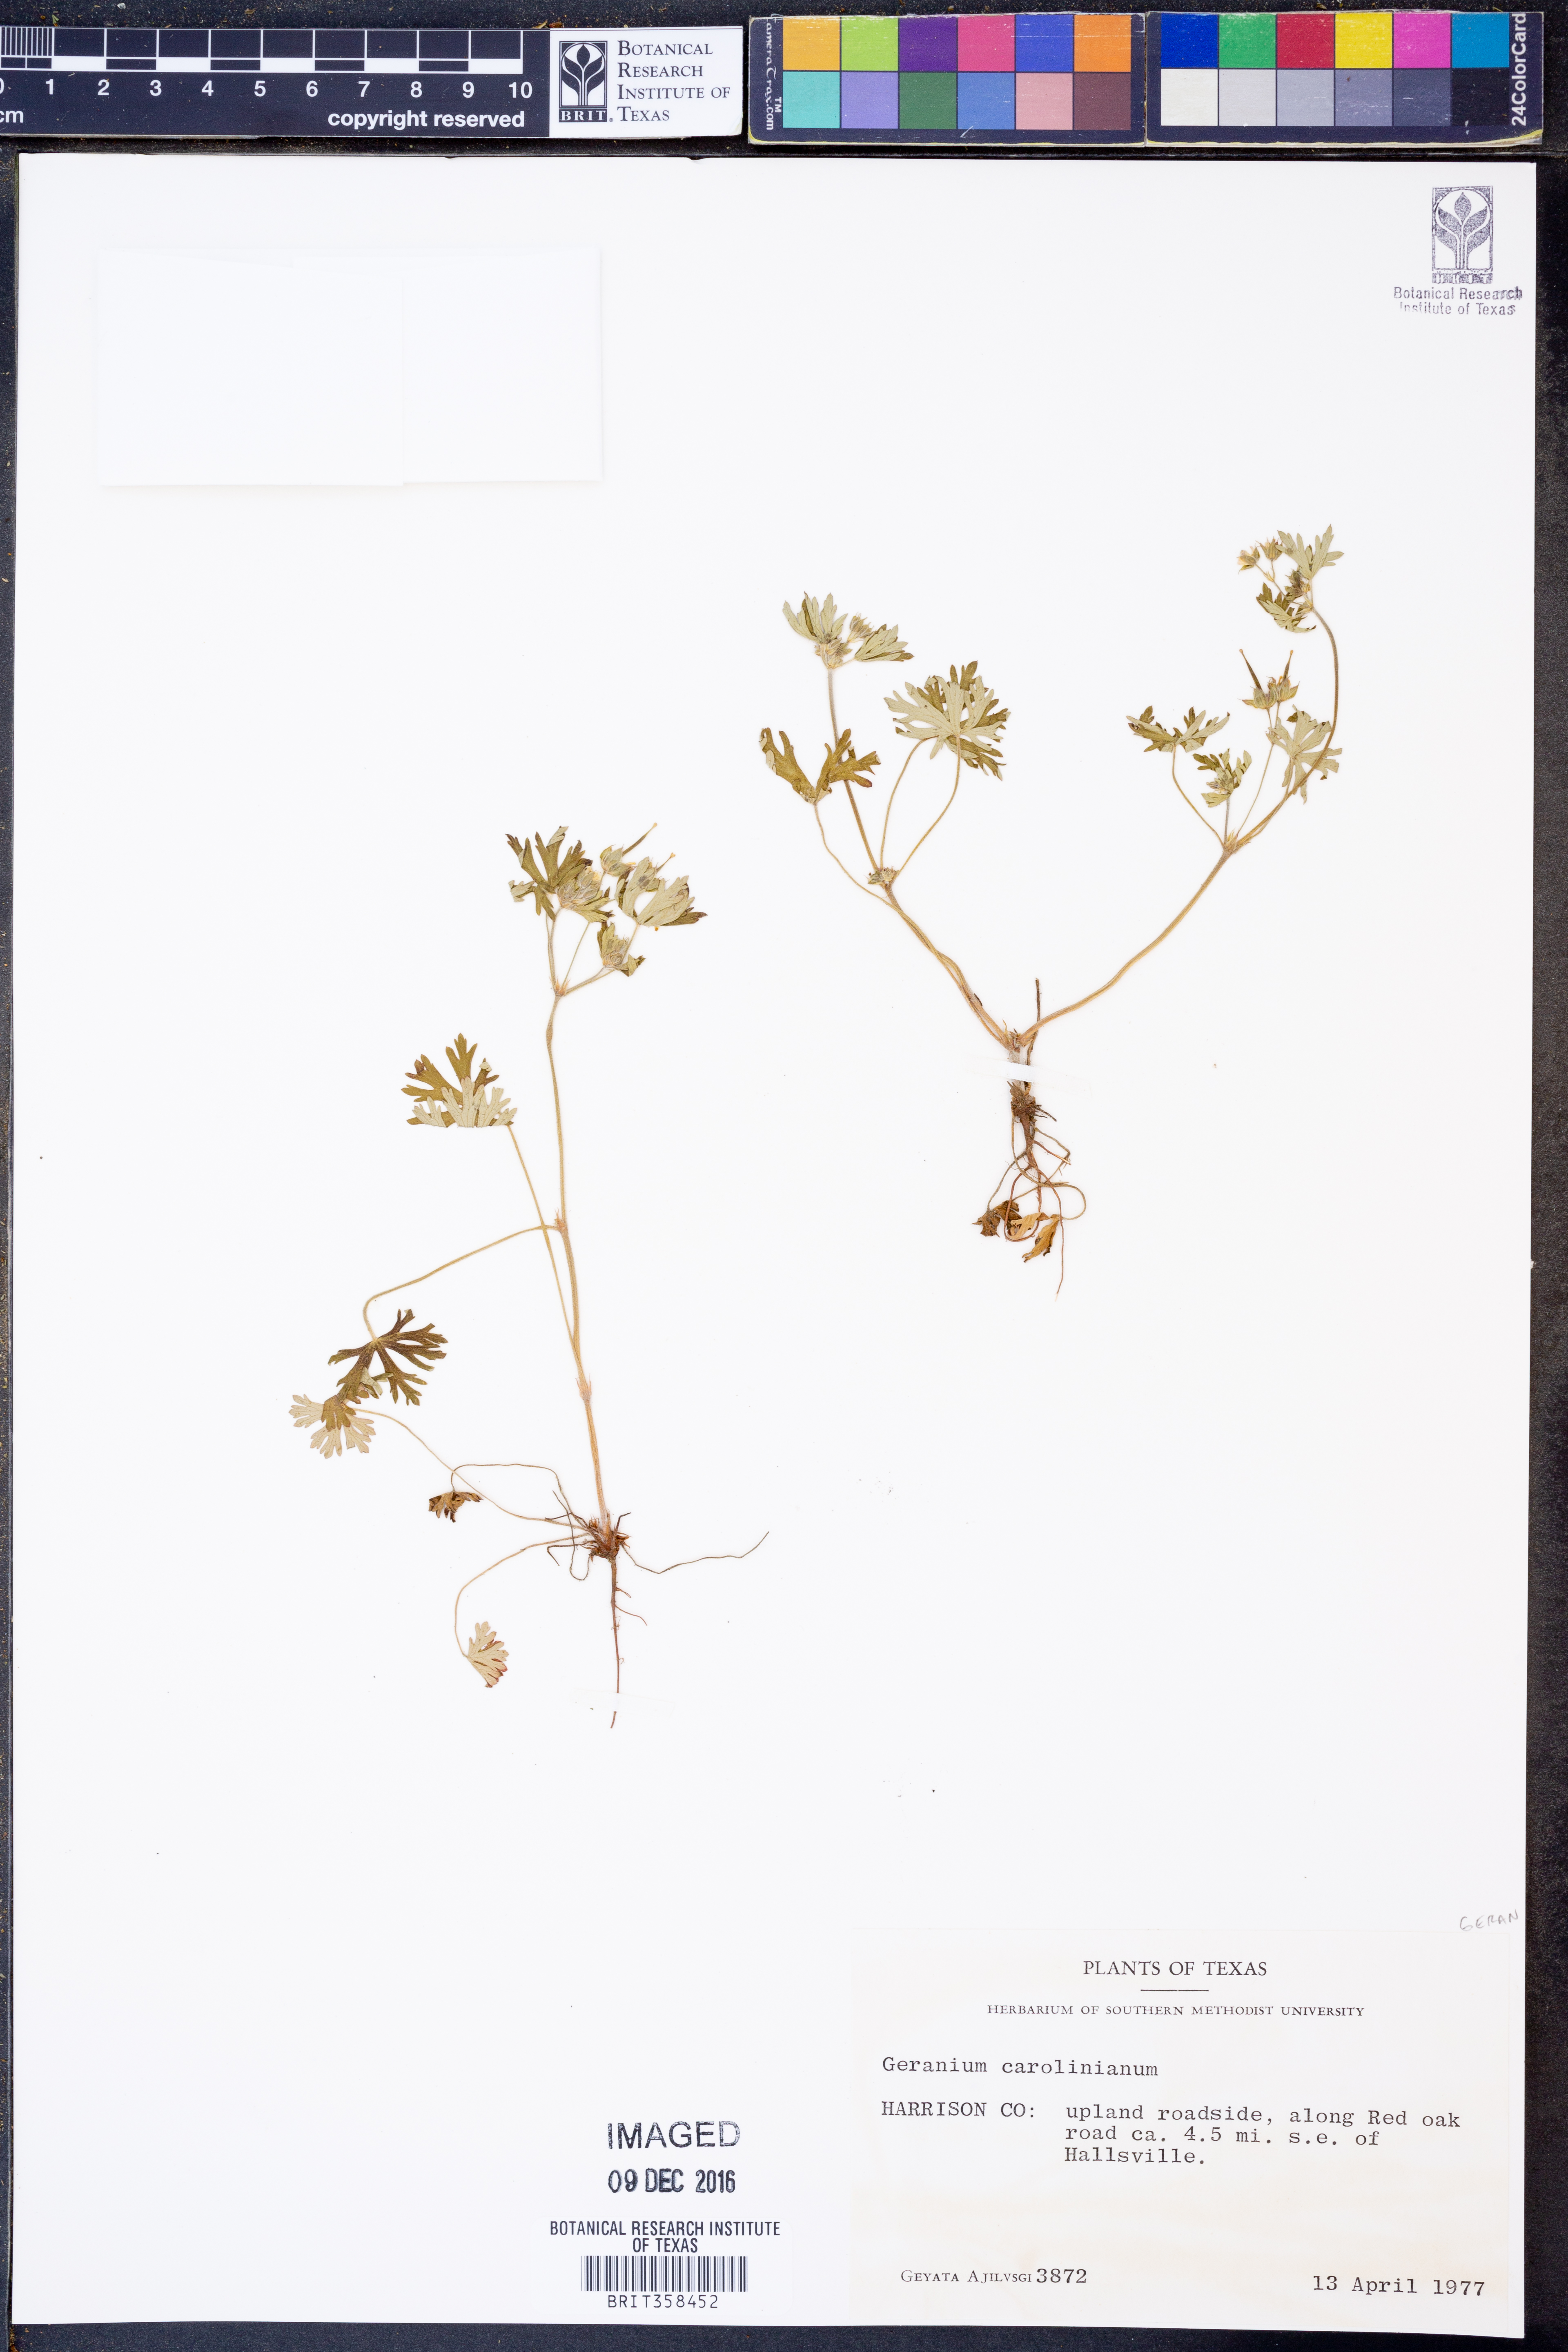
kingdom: Plantae
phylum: Tracheophyta
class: Magnoliopsida
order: Geraniales
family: Geraniaceae
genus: Geranium
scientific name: Geranium carolinianum
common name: Carolina crane's-bill
